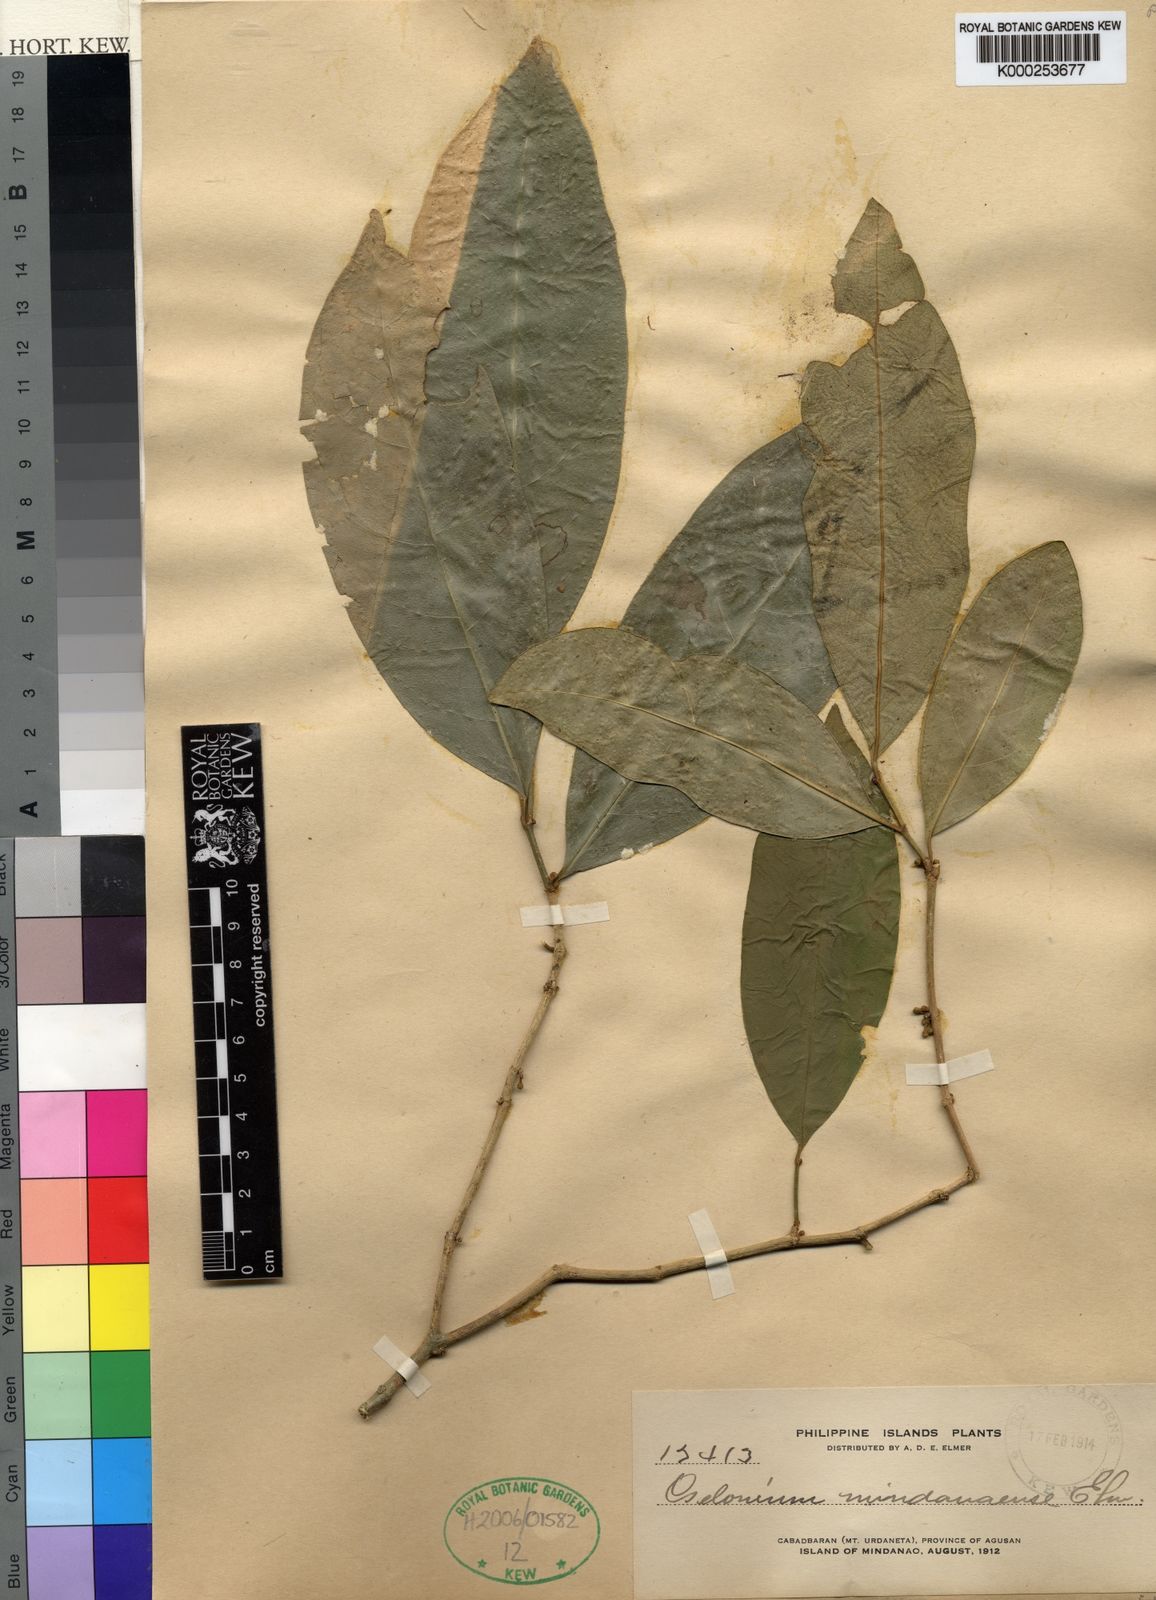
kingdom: Plantae
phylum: Tracheophyta
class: Magnoliopsida
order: Malpighiales
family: Euphorbiaceae
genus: Suregada
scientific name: Suregada glomerulata
